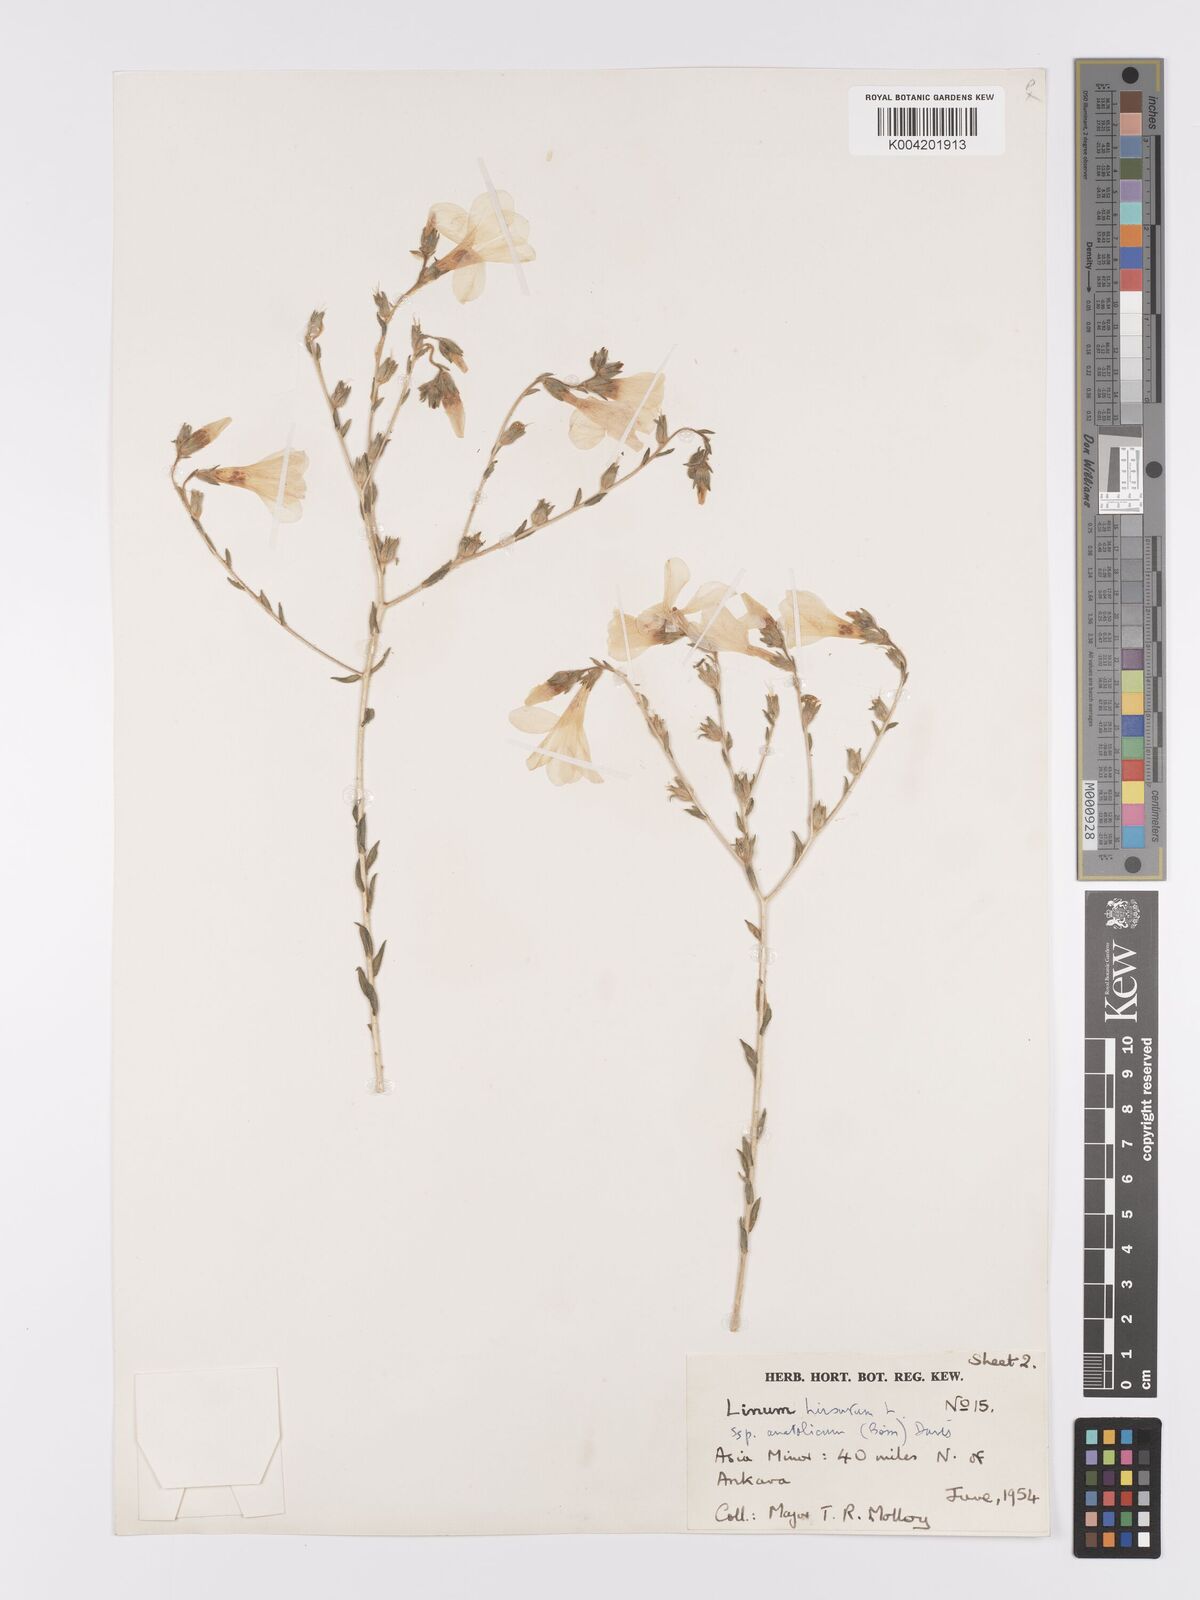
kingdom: Plantae
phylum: Tracheophyta
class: Magnoliopsida
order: Malpighiales
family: Linaceae
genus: Linum
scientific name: Linum
